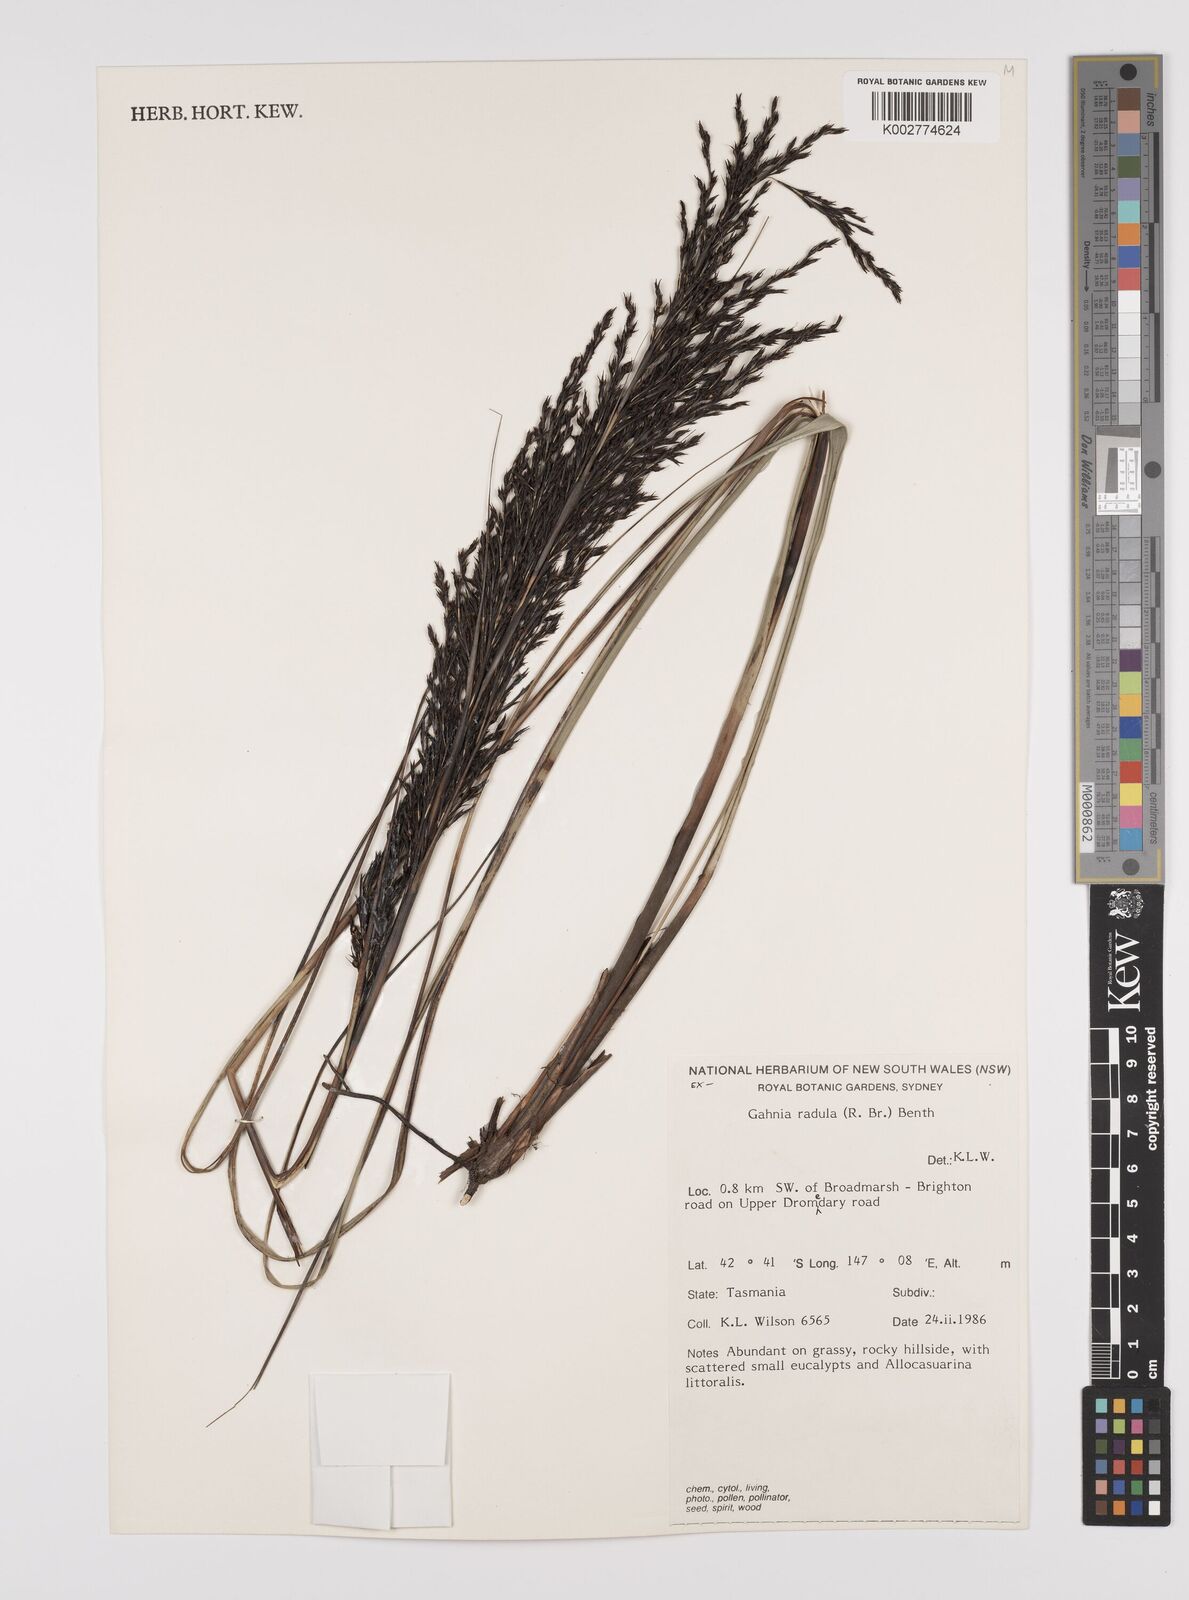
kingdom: Plantae
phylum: Tracheophyta
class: Liliopsida
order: Poales
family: Cyperaceae
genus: Gahnia
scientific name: Gahnia radula
